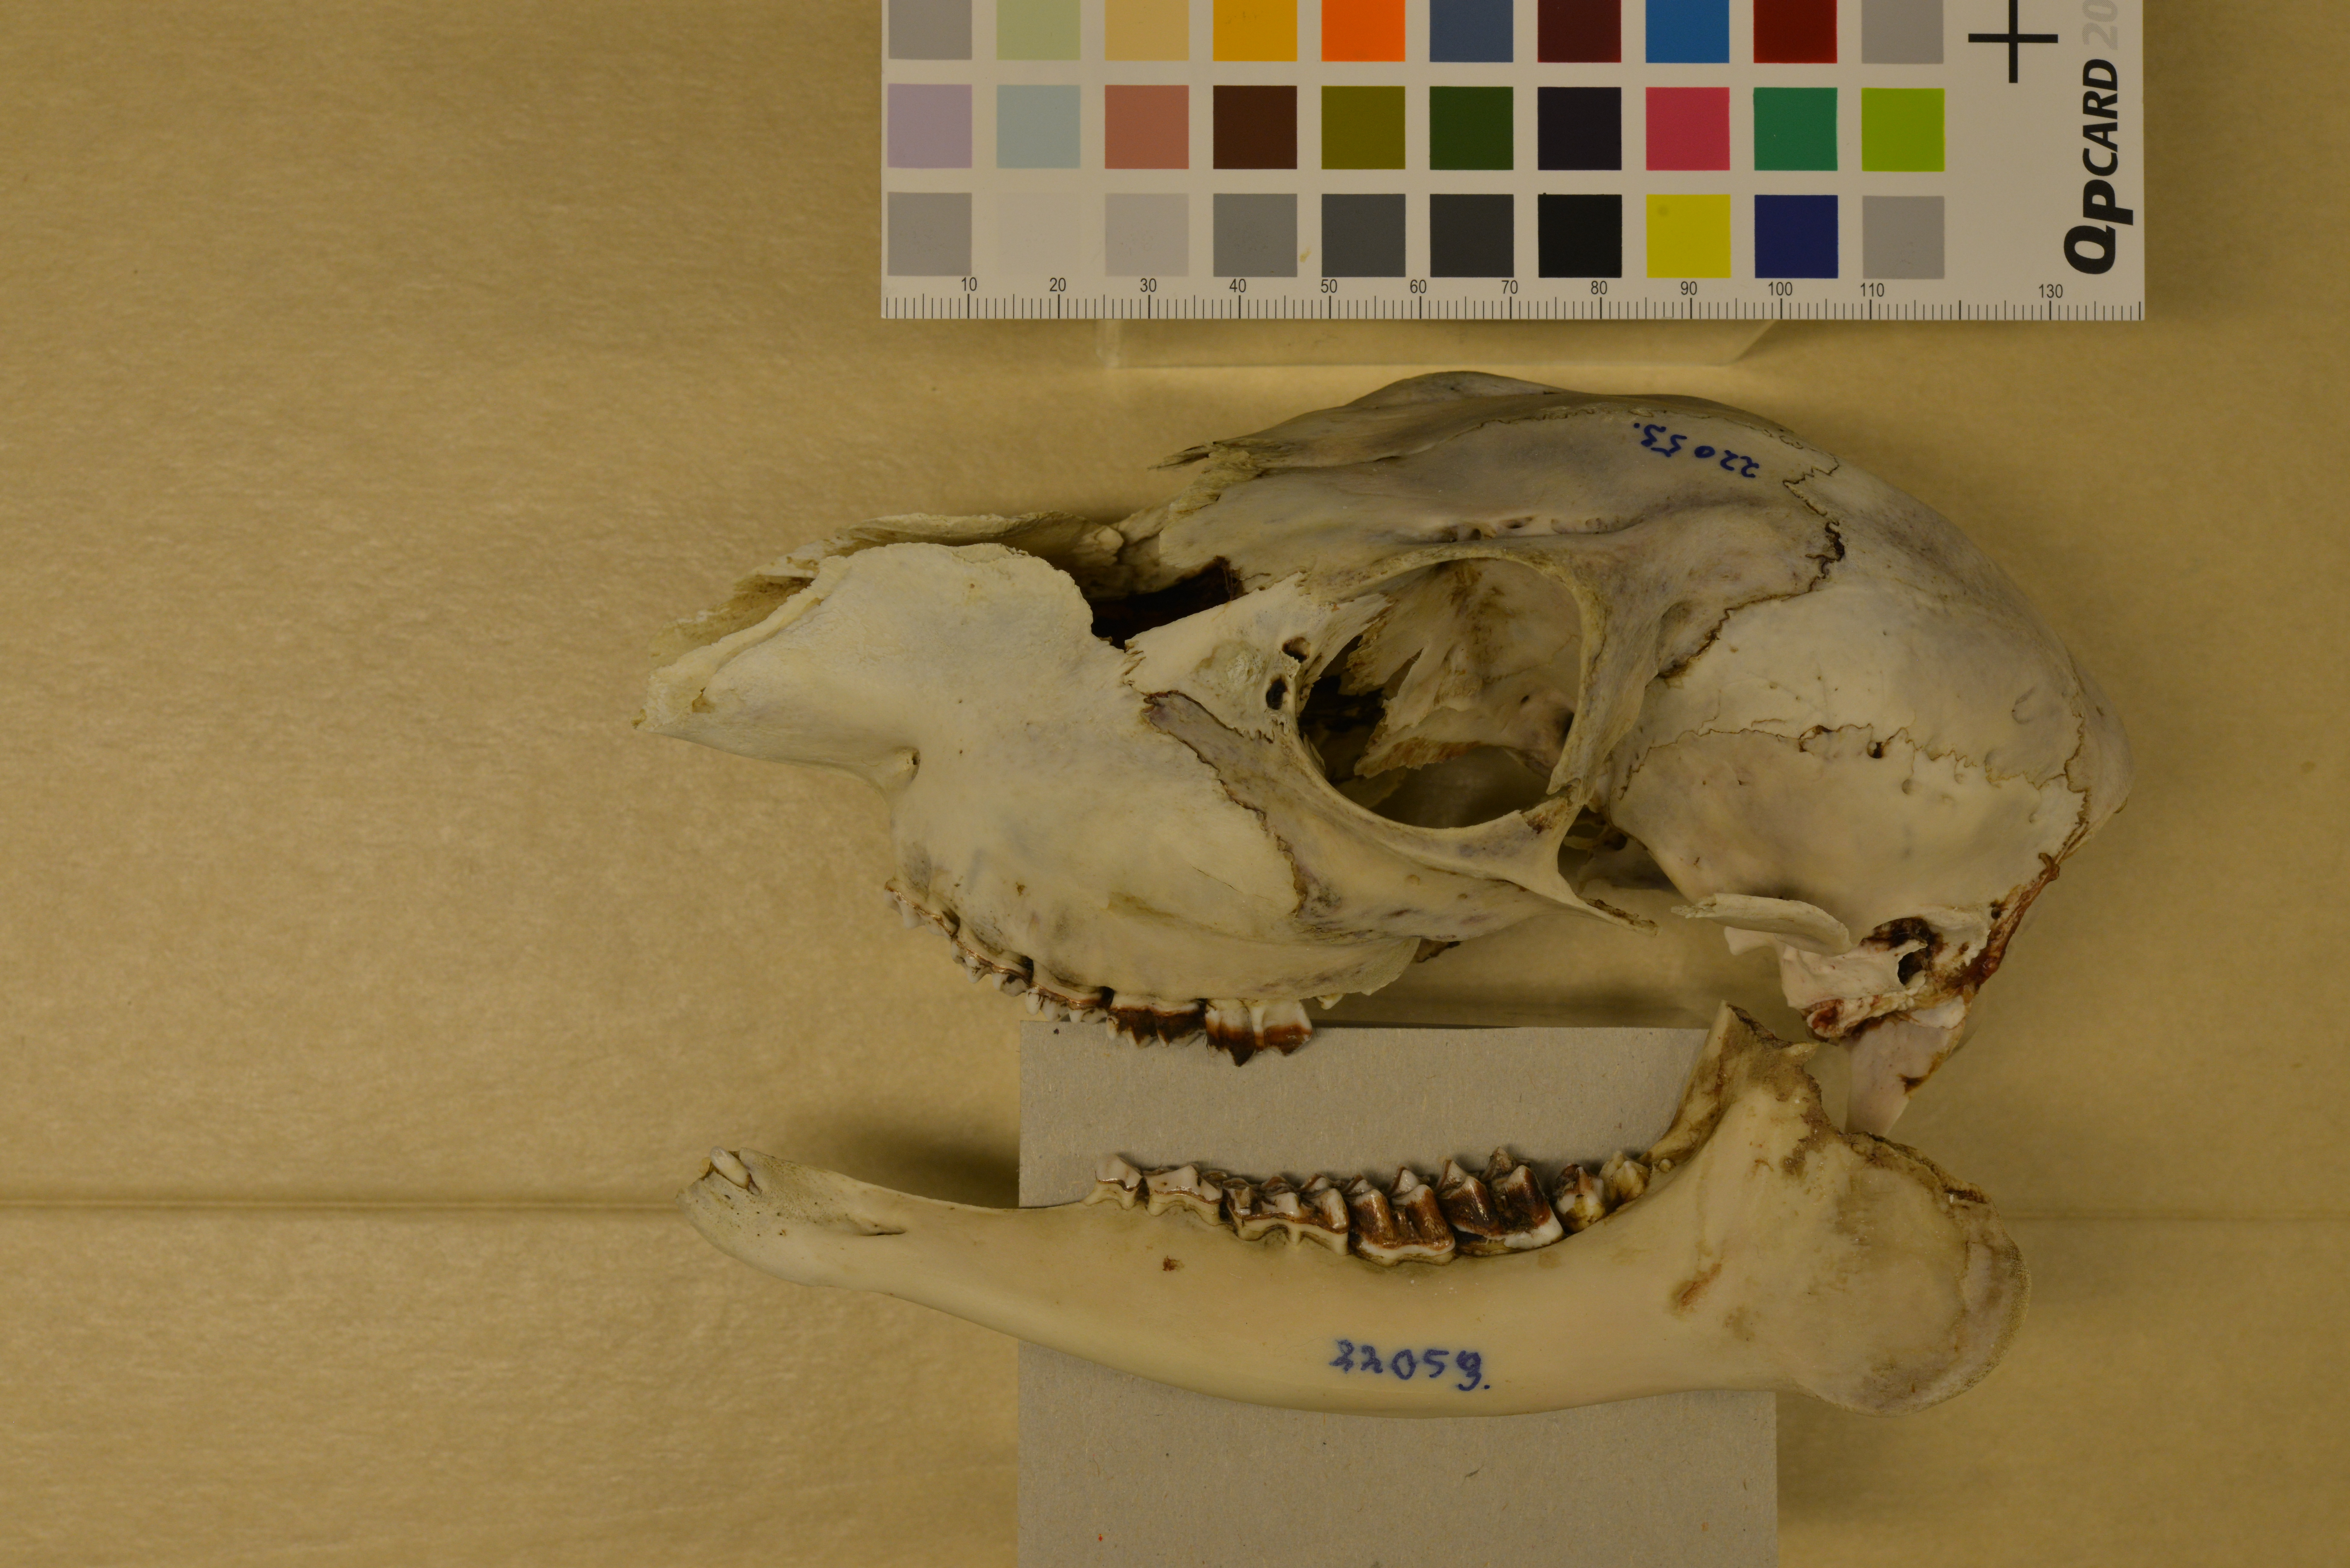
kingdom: Animalia
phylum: Chordata
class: Mammalia
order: Artiodactyla
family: Cervidae
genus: Capreolus
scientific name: Capreolus capreolus
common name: Western roe deer
